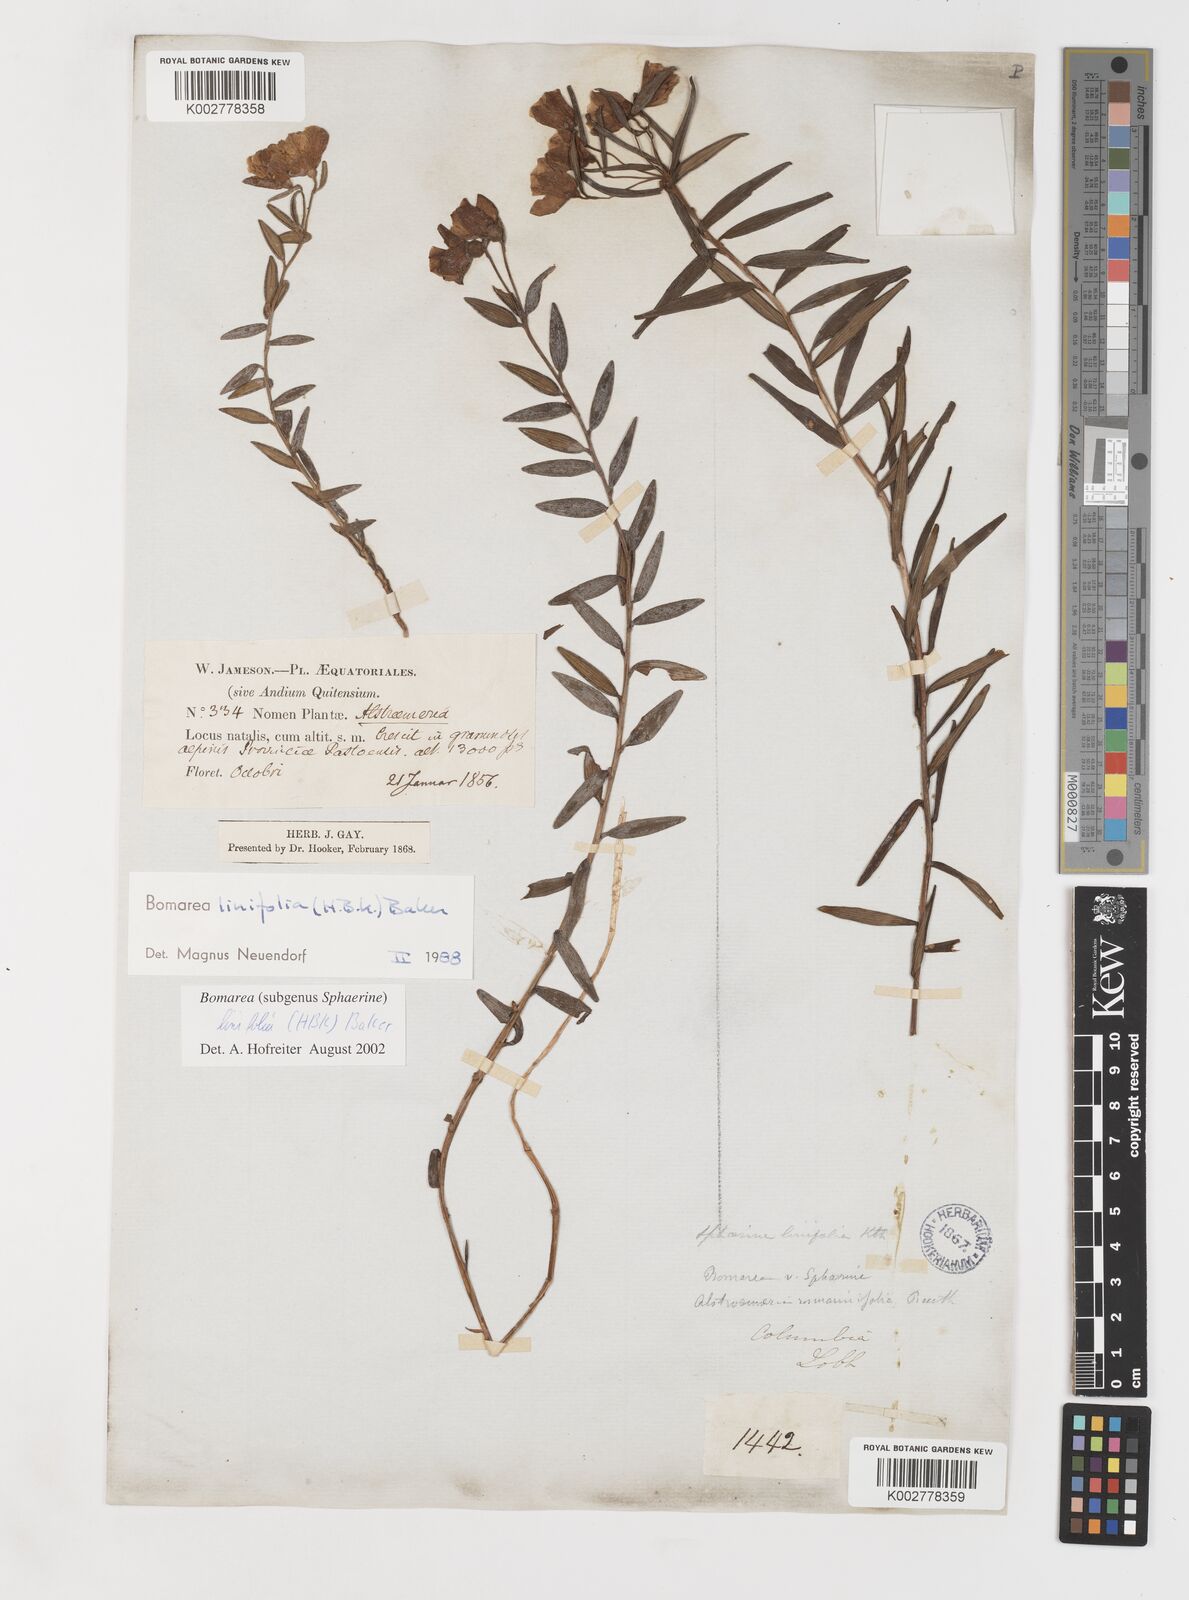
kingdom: Plantae
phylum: Tracheophyta
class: Liliopsida
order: Liliales
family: Alstroemeriaceae
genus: Bomarea
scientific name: Bomarea linifolia
